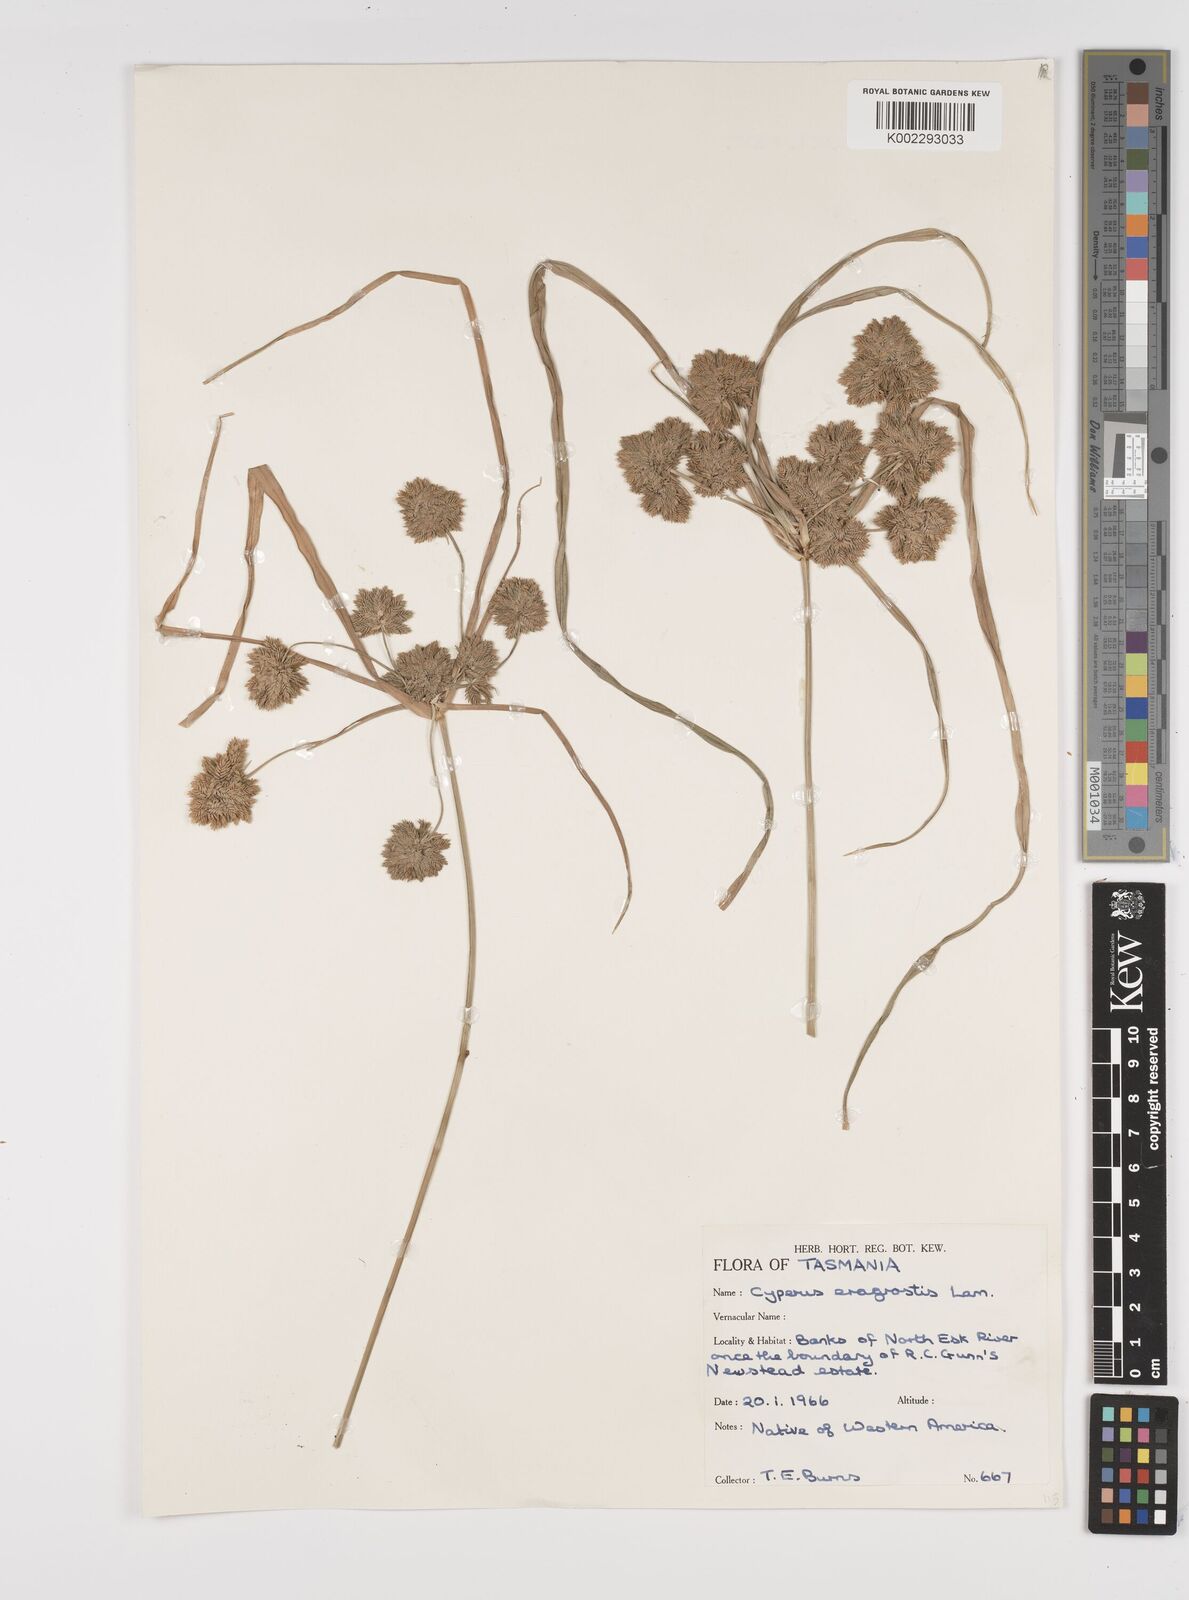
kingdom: Plantae
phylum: Tracheophyta
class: Liliopsida
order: Poales
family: Cyperaceae
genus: Cyperus
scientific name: Cyperus eragrostis
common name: Tall flatsedge
